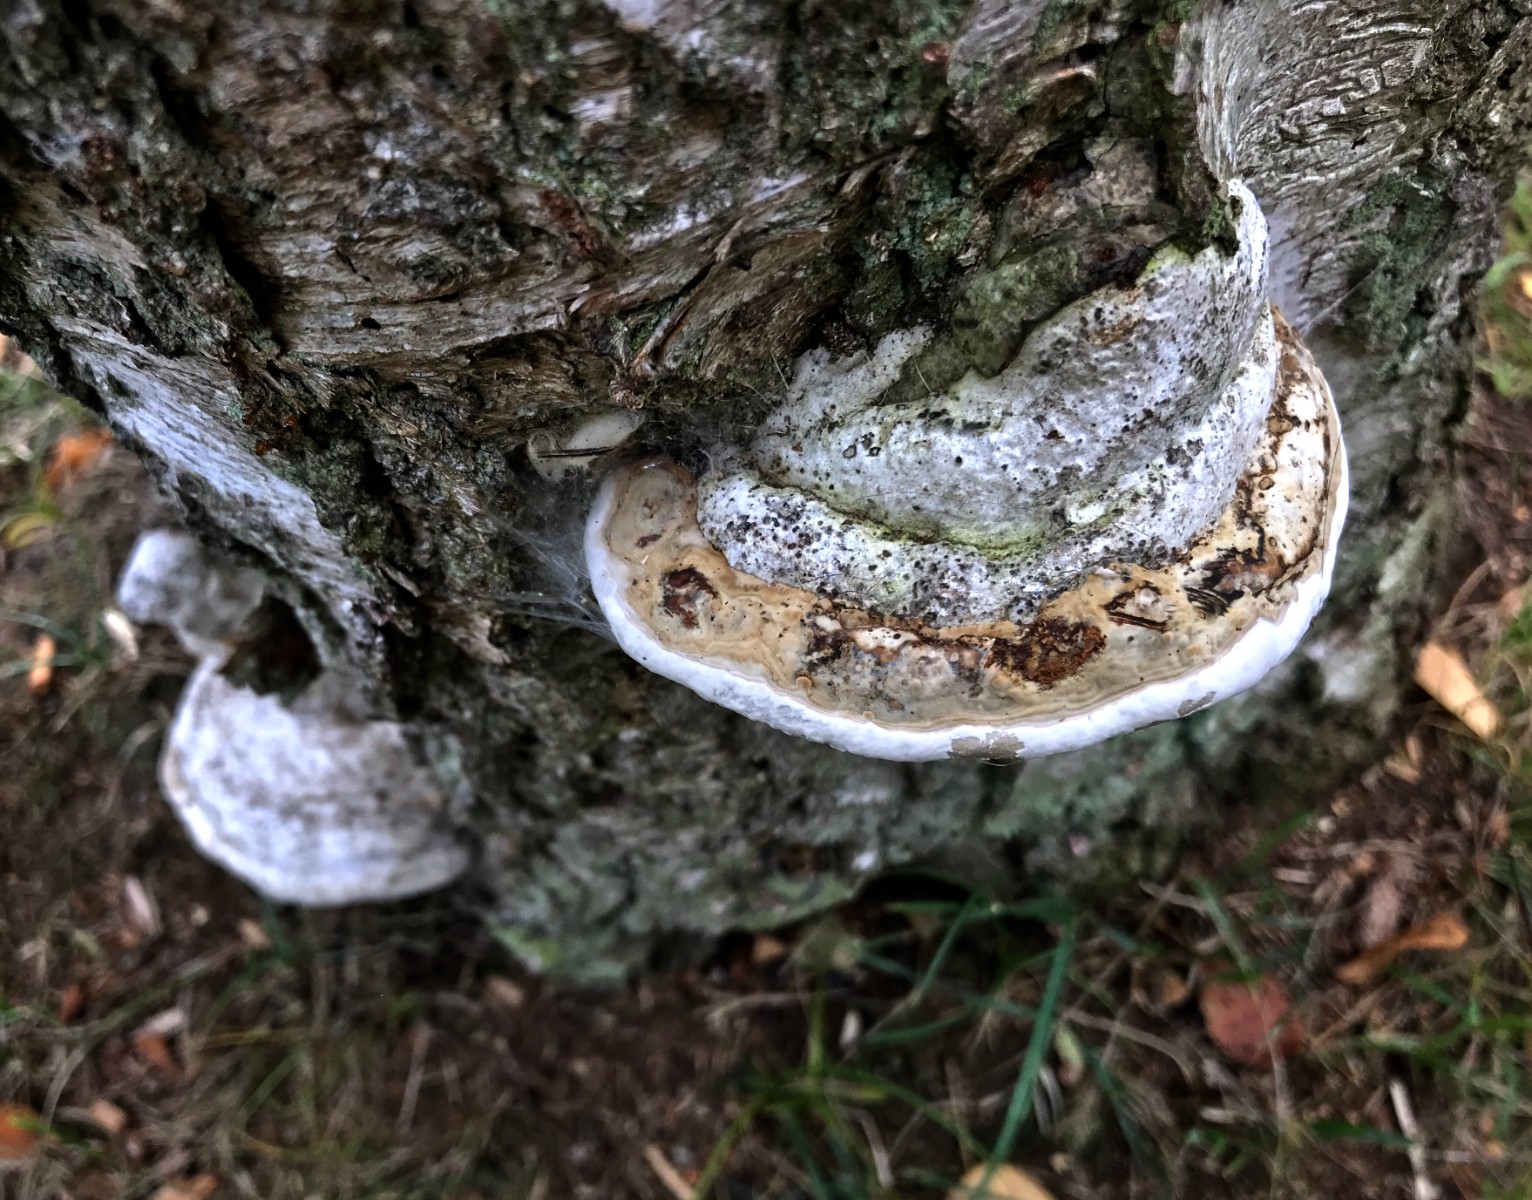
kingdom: Fungi
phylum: Basidiomycota
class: Agaricomycetes
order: Polyporales
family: Polyporaceae
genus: Fomes
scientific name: Fomes fomentarius
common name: tøndersvamp
